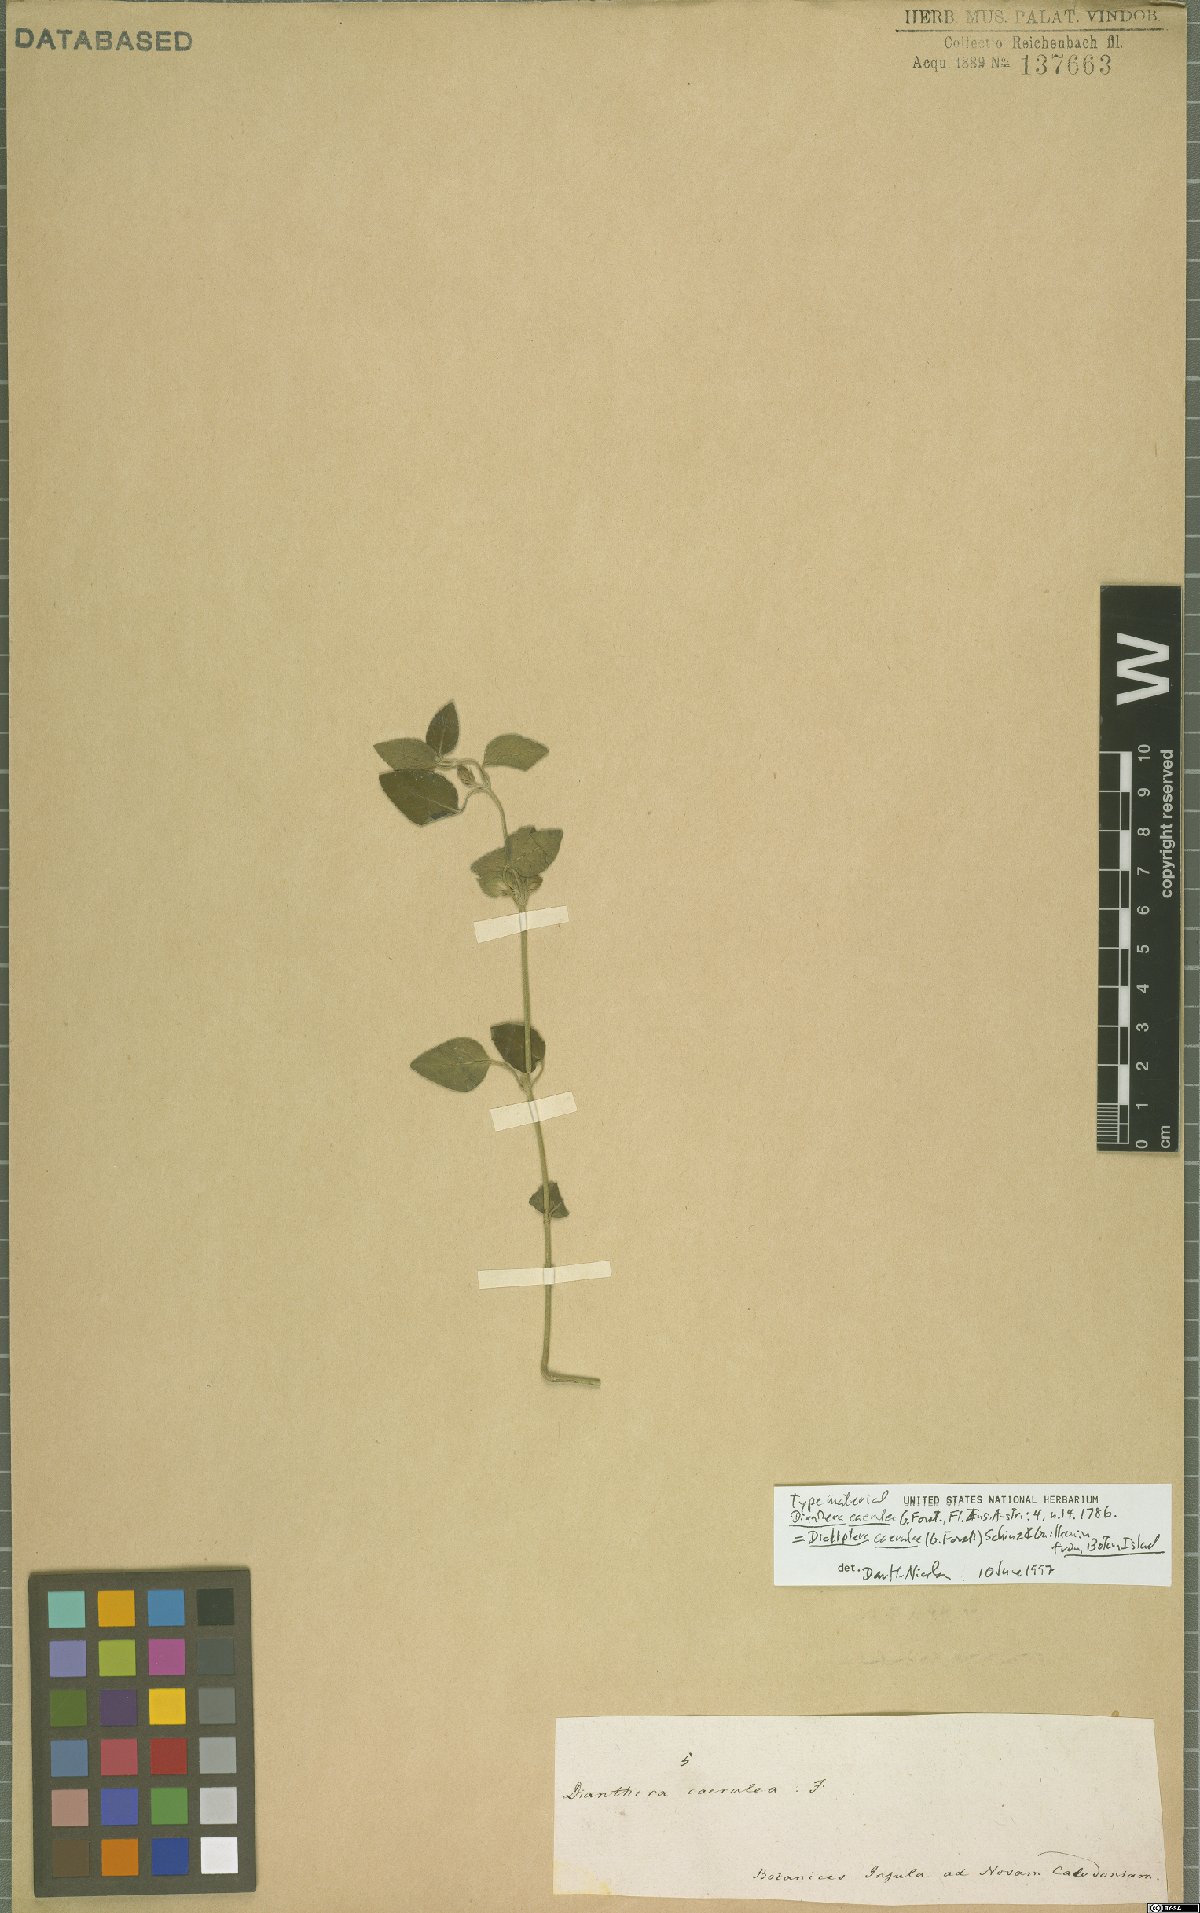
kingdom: Plantae
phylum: Tracheophyta
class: Magnoliopsida
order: Lamiales
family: Acanthaceae
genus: Dicliptera
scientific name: Dicliptera caerulea
